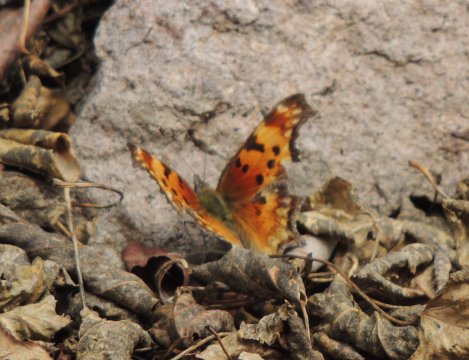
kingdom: Animalia
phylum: Arthropoda
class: Insecta
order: Lepidoptera
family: Nymphalidae
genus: Polygonia
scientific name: Polygonia gracilis
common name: Hoary Comma
